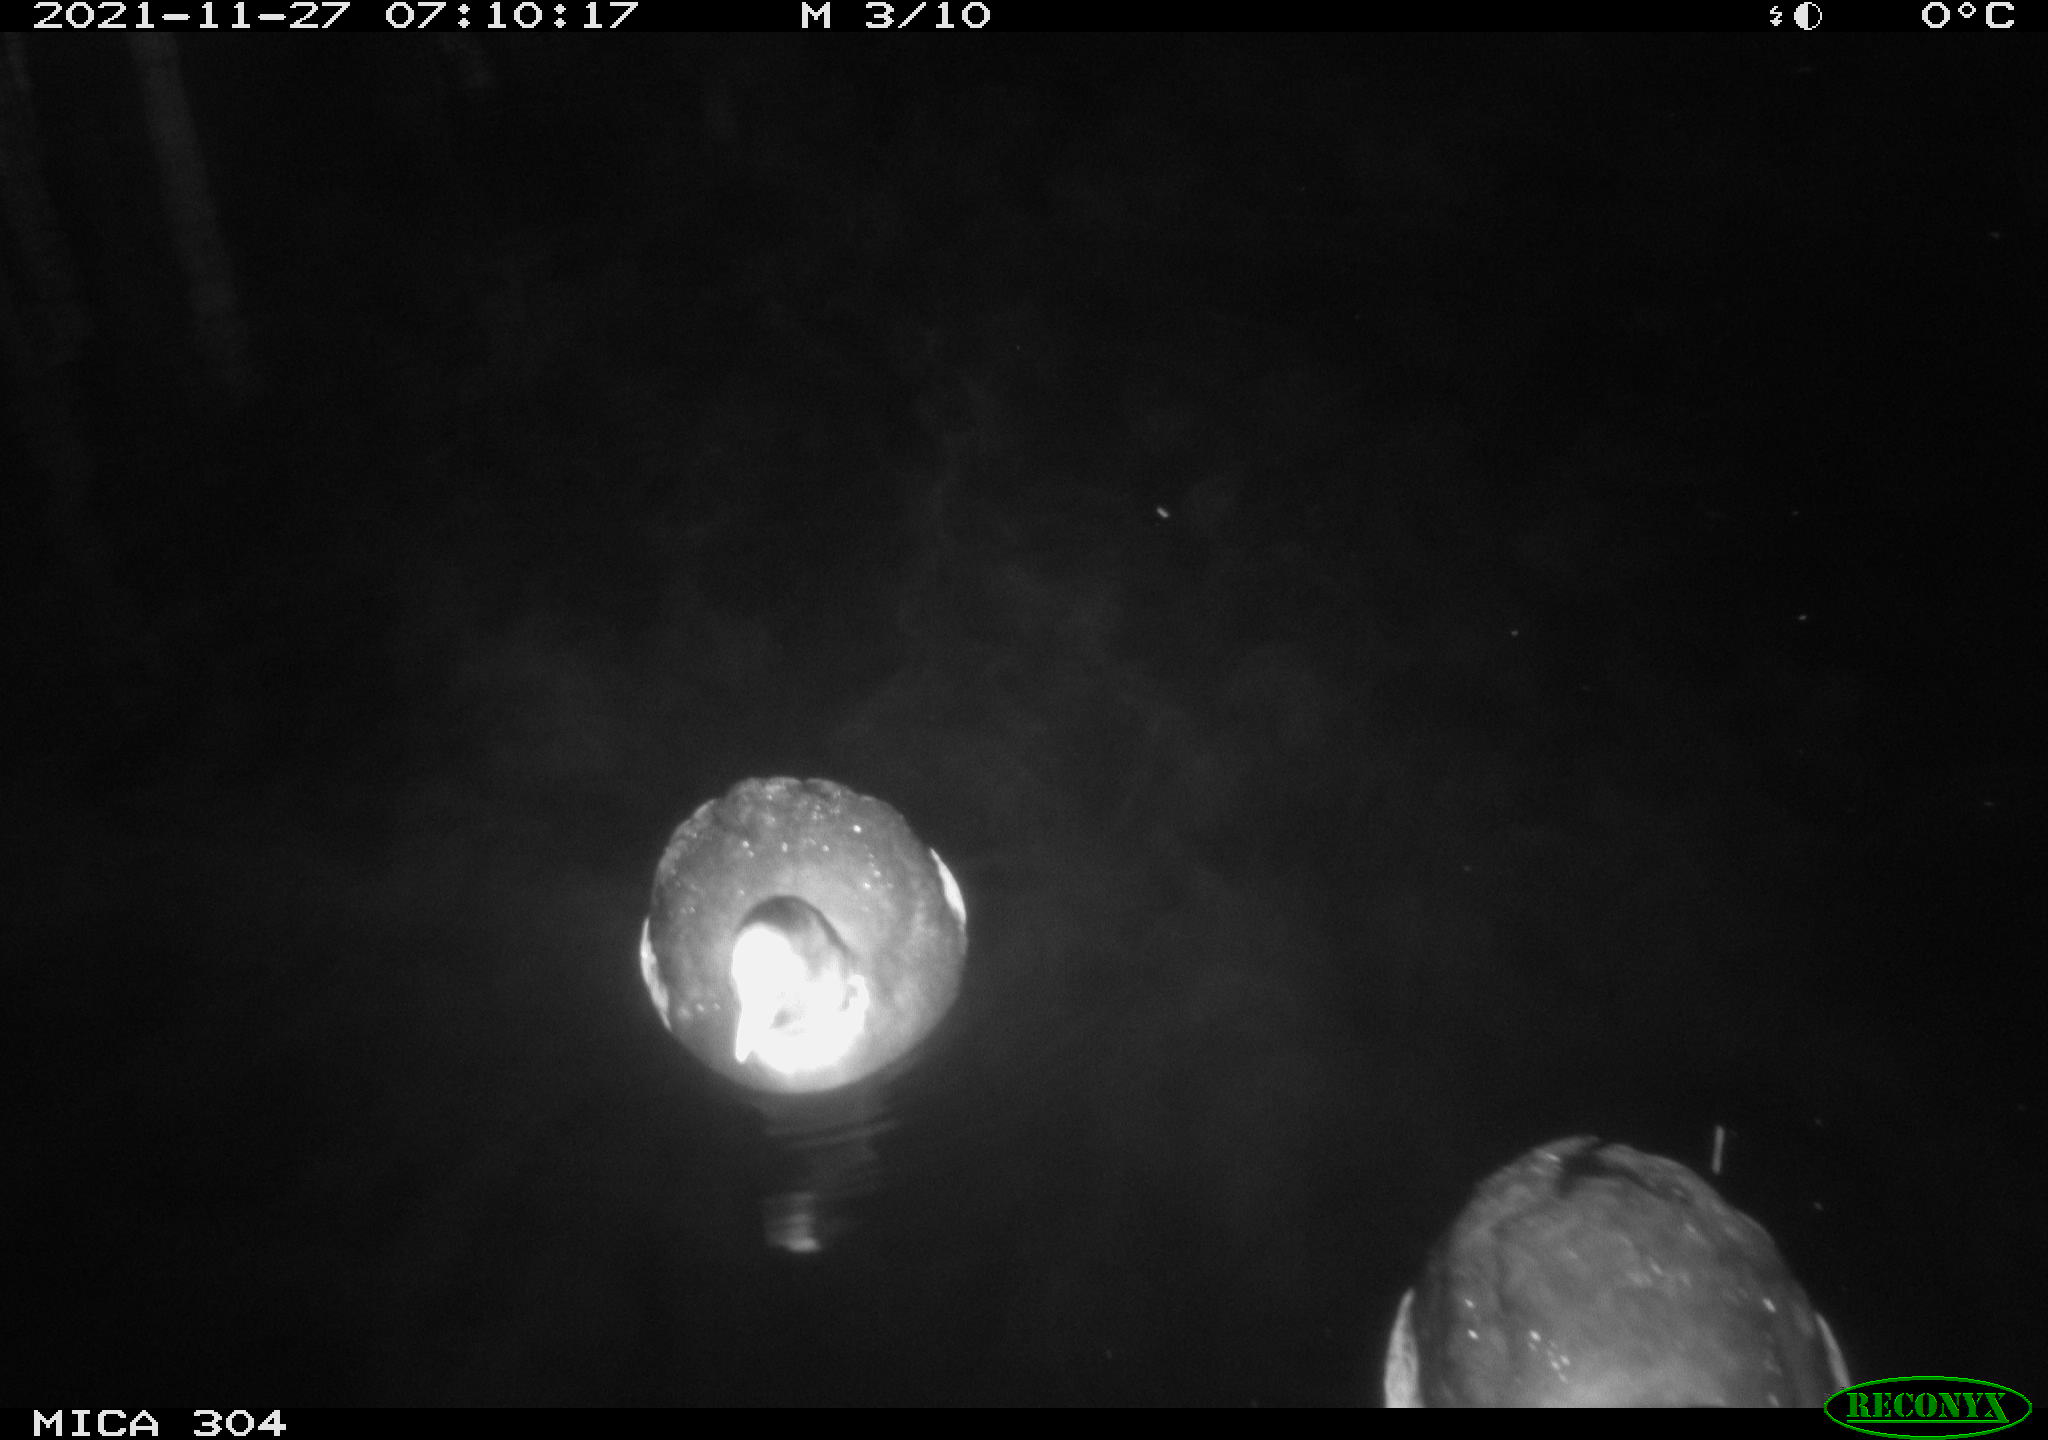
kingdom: Animalia
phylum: Chordata
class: Aves
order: Gruiformes
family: Rallidae
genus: Fulica
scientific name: Fulica atra
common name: Eurasian coot
